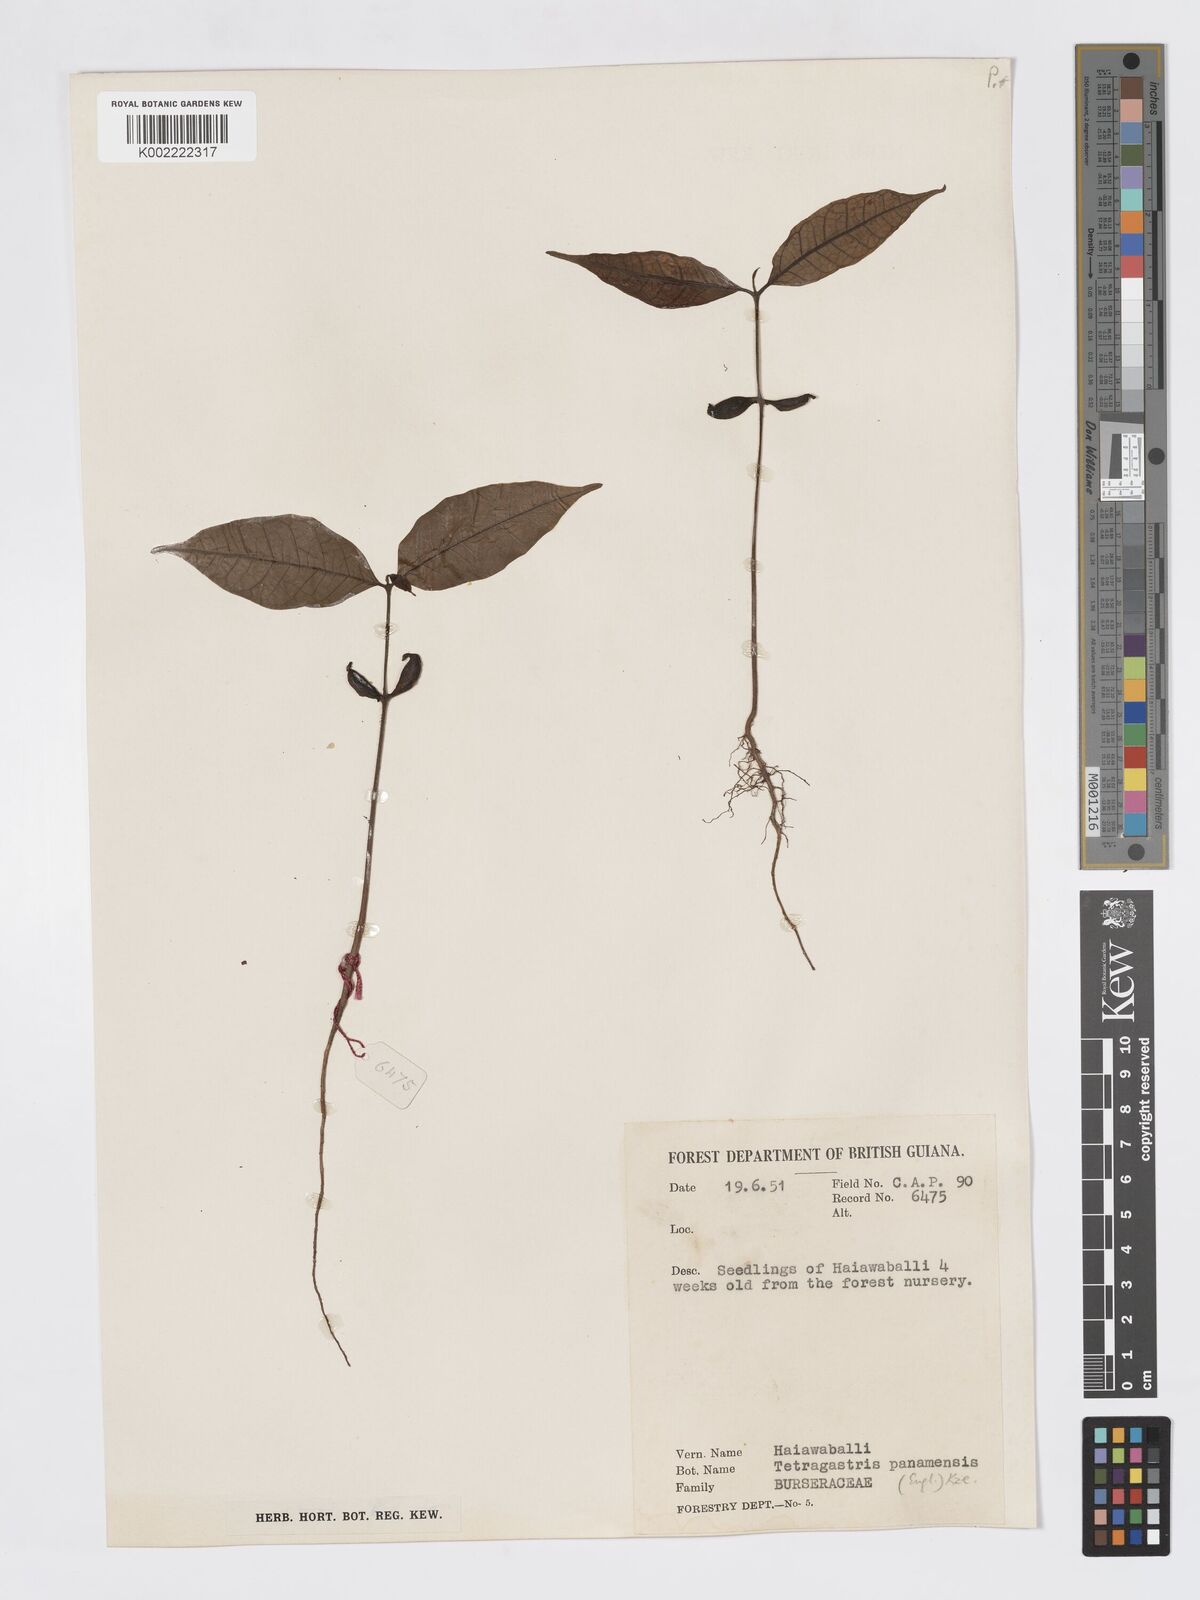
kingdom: Plantae
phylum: Tracheophyta
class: Magnoliopsida
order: Sapindales
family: Burseraceae
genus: Tetragastris
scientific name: Tetragastris panamensis
